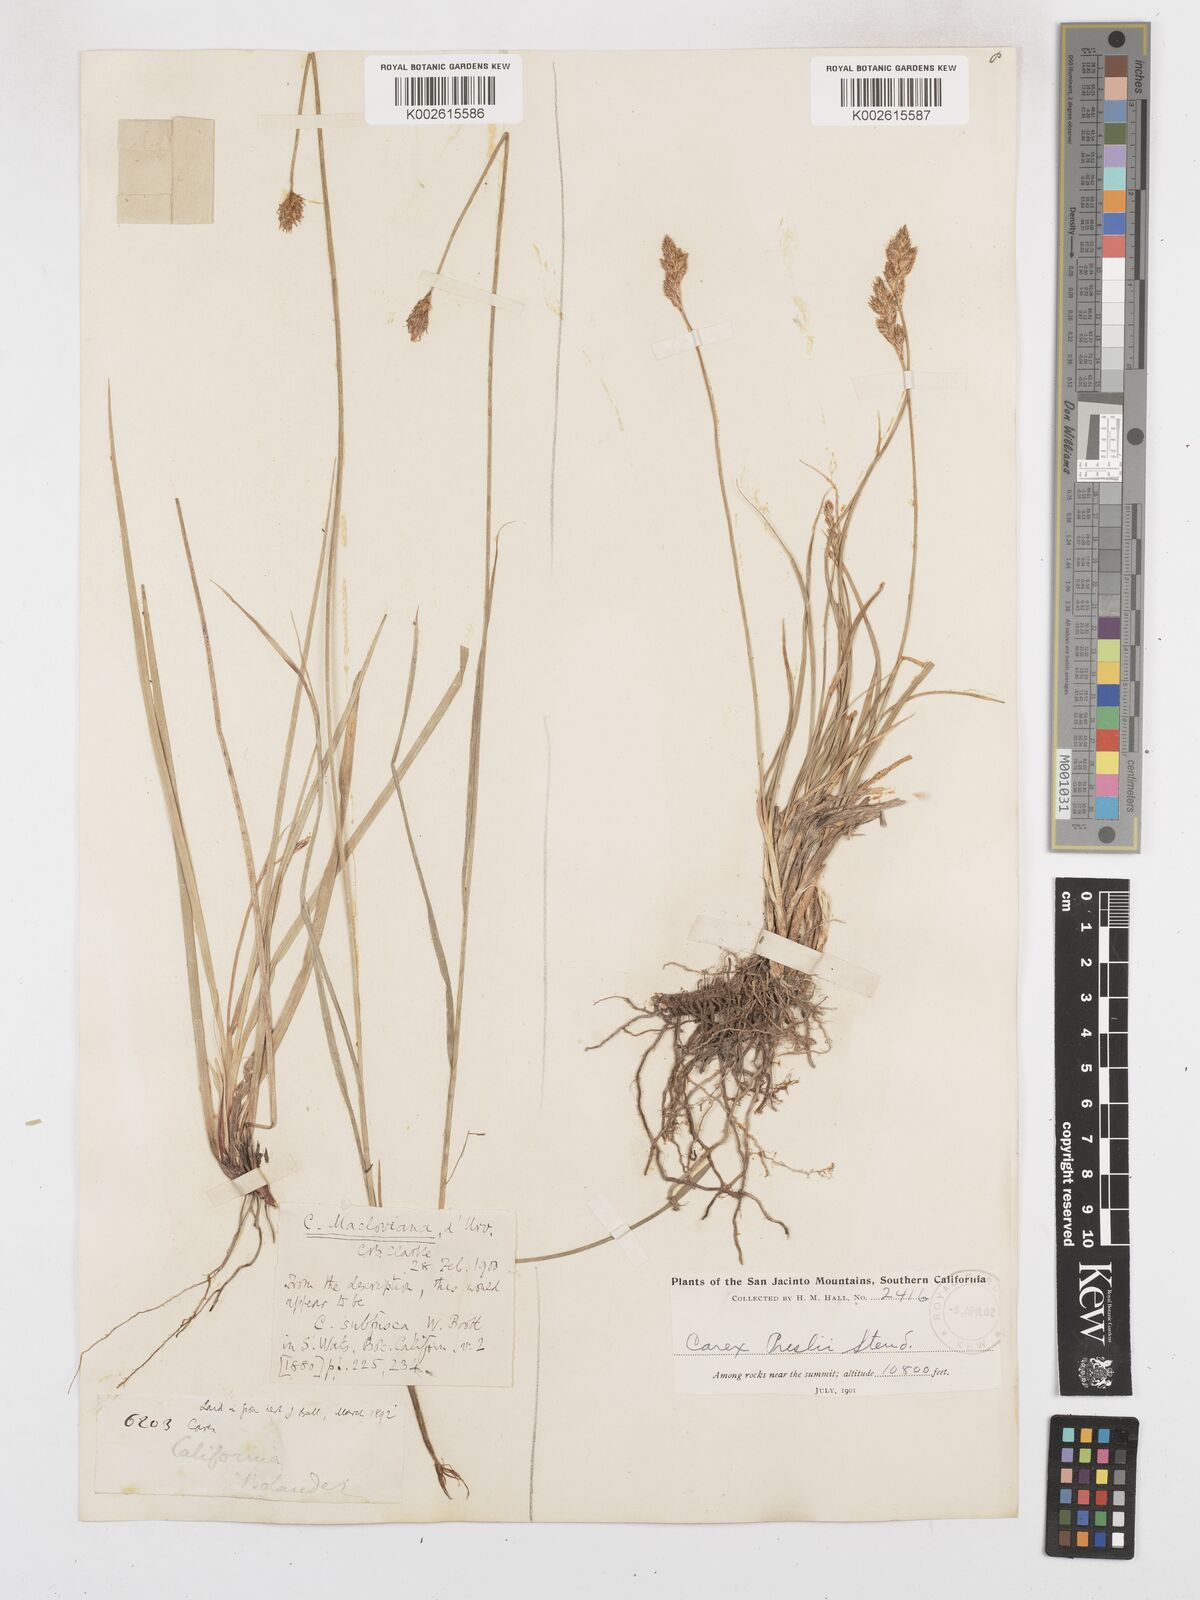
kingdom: Plantae
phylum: Tracheophyta
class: Liliopsida
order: Poales
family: Cyperaceae
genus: Carex
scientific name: Carex macloviana
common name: Falkland island sedge
